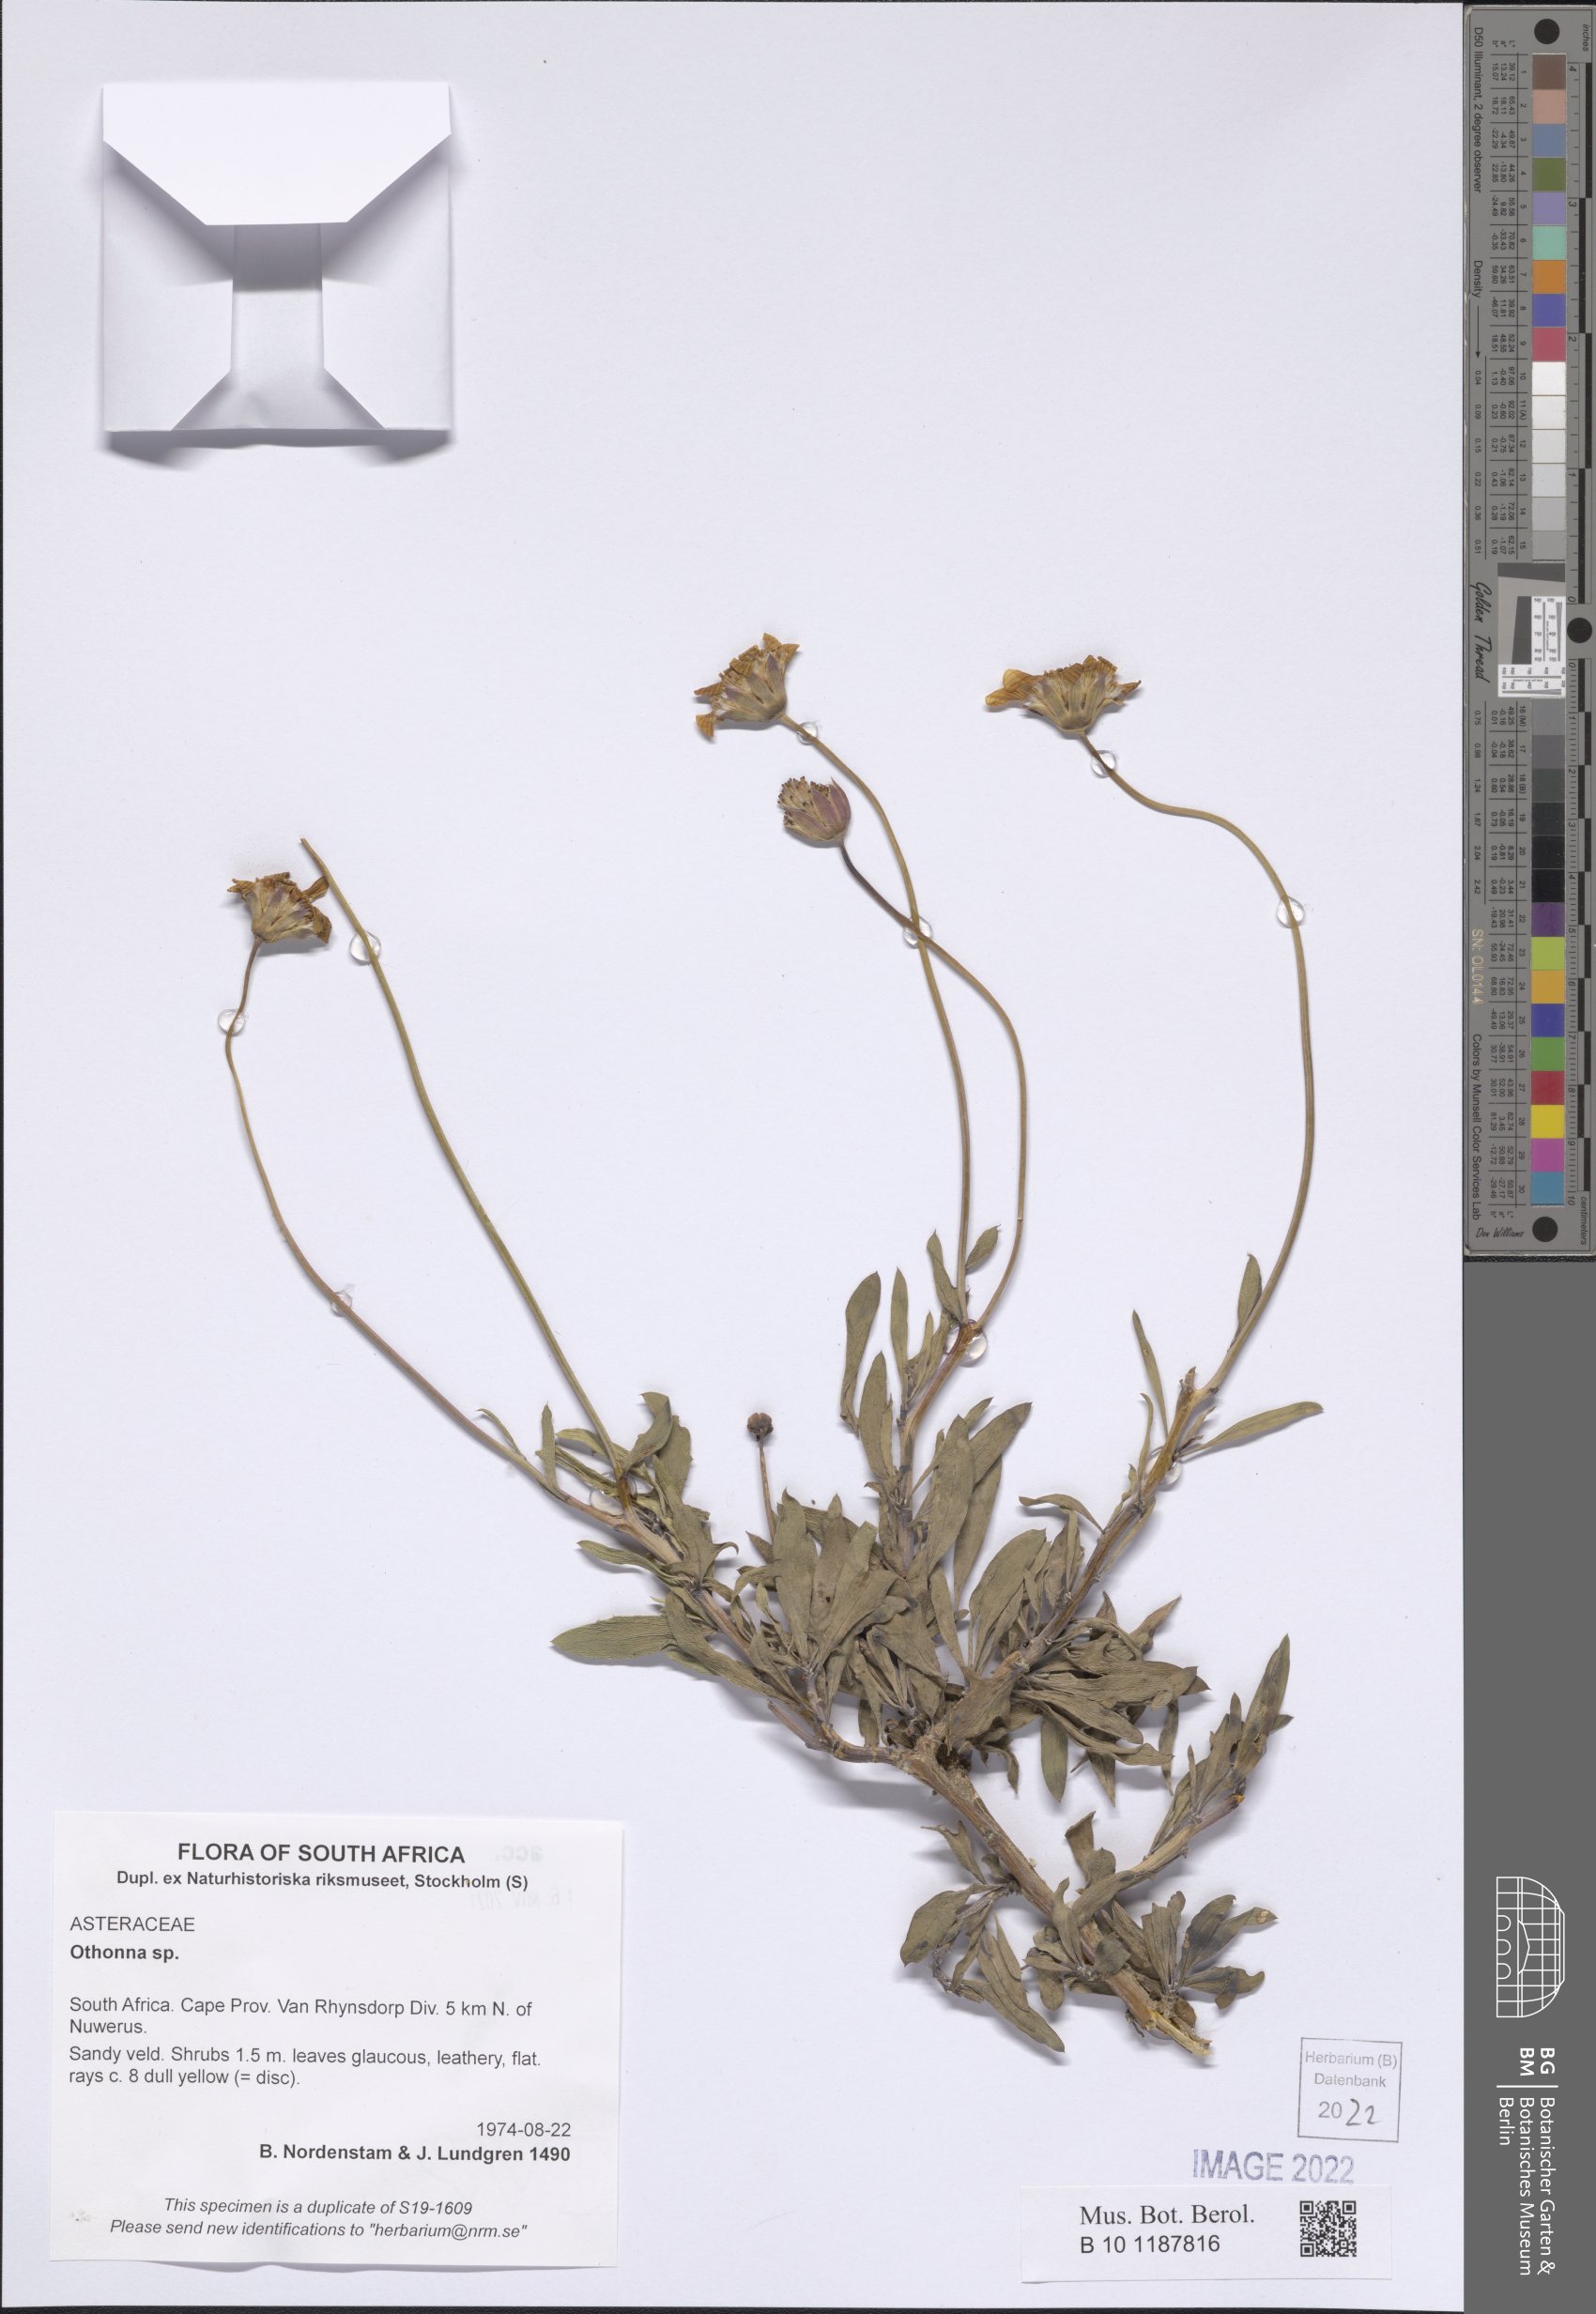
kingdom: Plantae
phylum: Tracheophyta
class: Magnoliopsida
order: Asterales
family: Asteraceae
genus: Othonna
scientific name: Othonna
